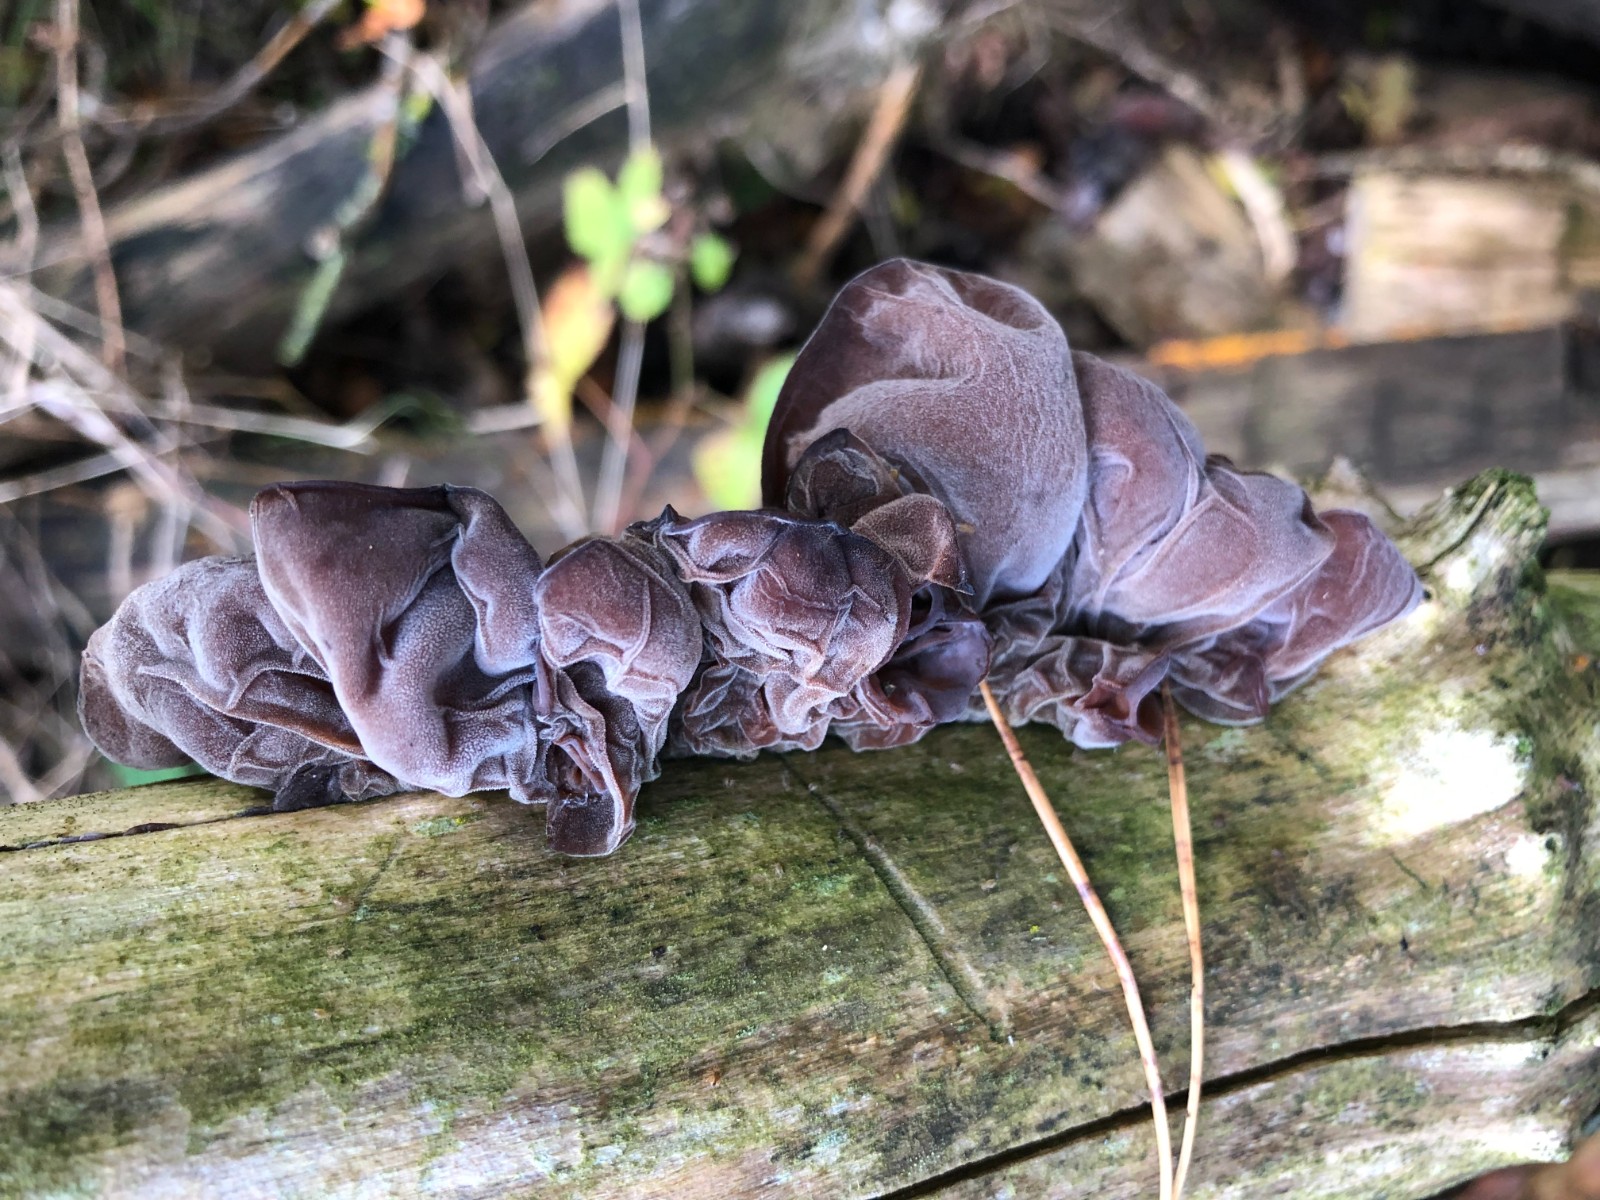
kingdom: Fungi
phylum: Basidiomycota
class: Agaricomycetes
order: Auriculariales
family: Auriculariaceae
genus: Auricularia
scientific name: Auricularia auricula-judae
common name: almindelig judasøre
